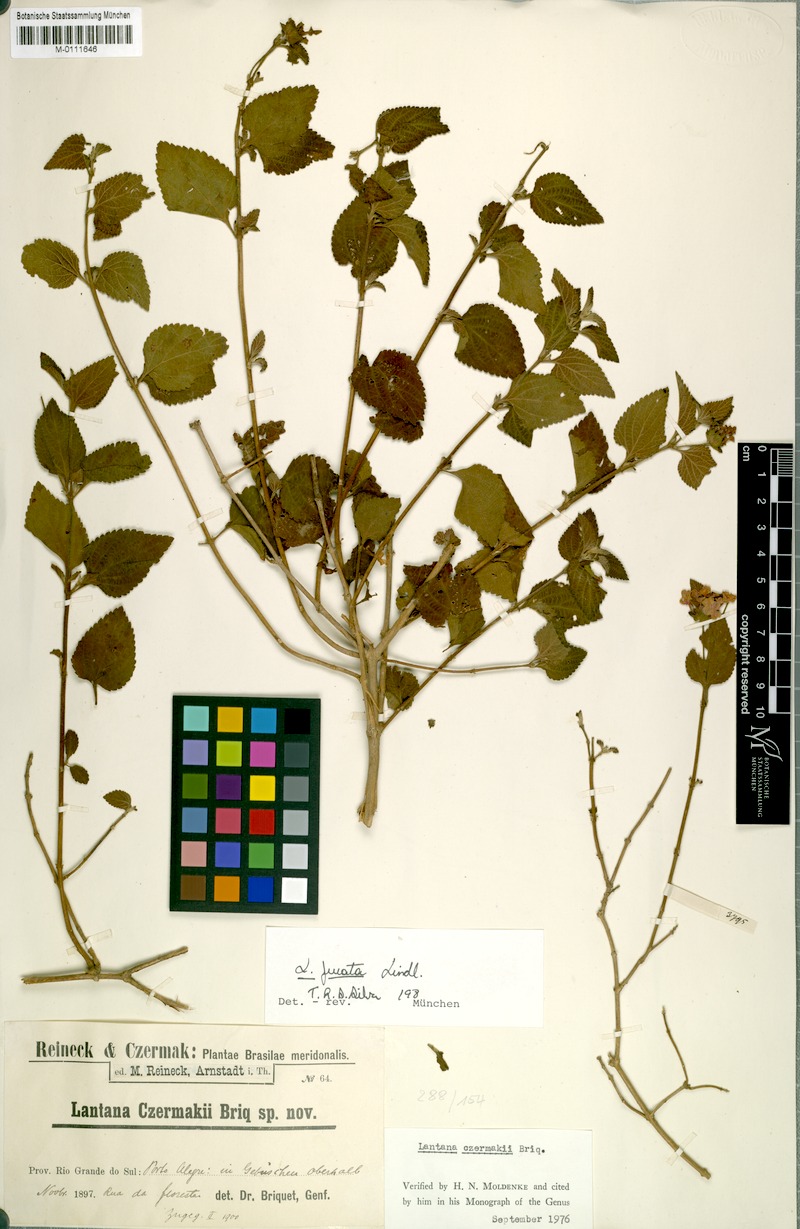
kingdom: Plantae
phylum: Tracheophyta
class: Magnoliopsida
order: Lamiales
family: Verbenaceae
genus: Lantana
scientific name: Lantana fucata
